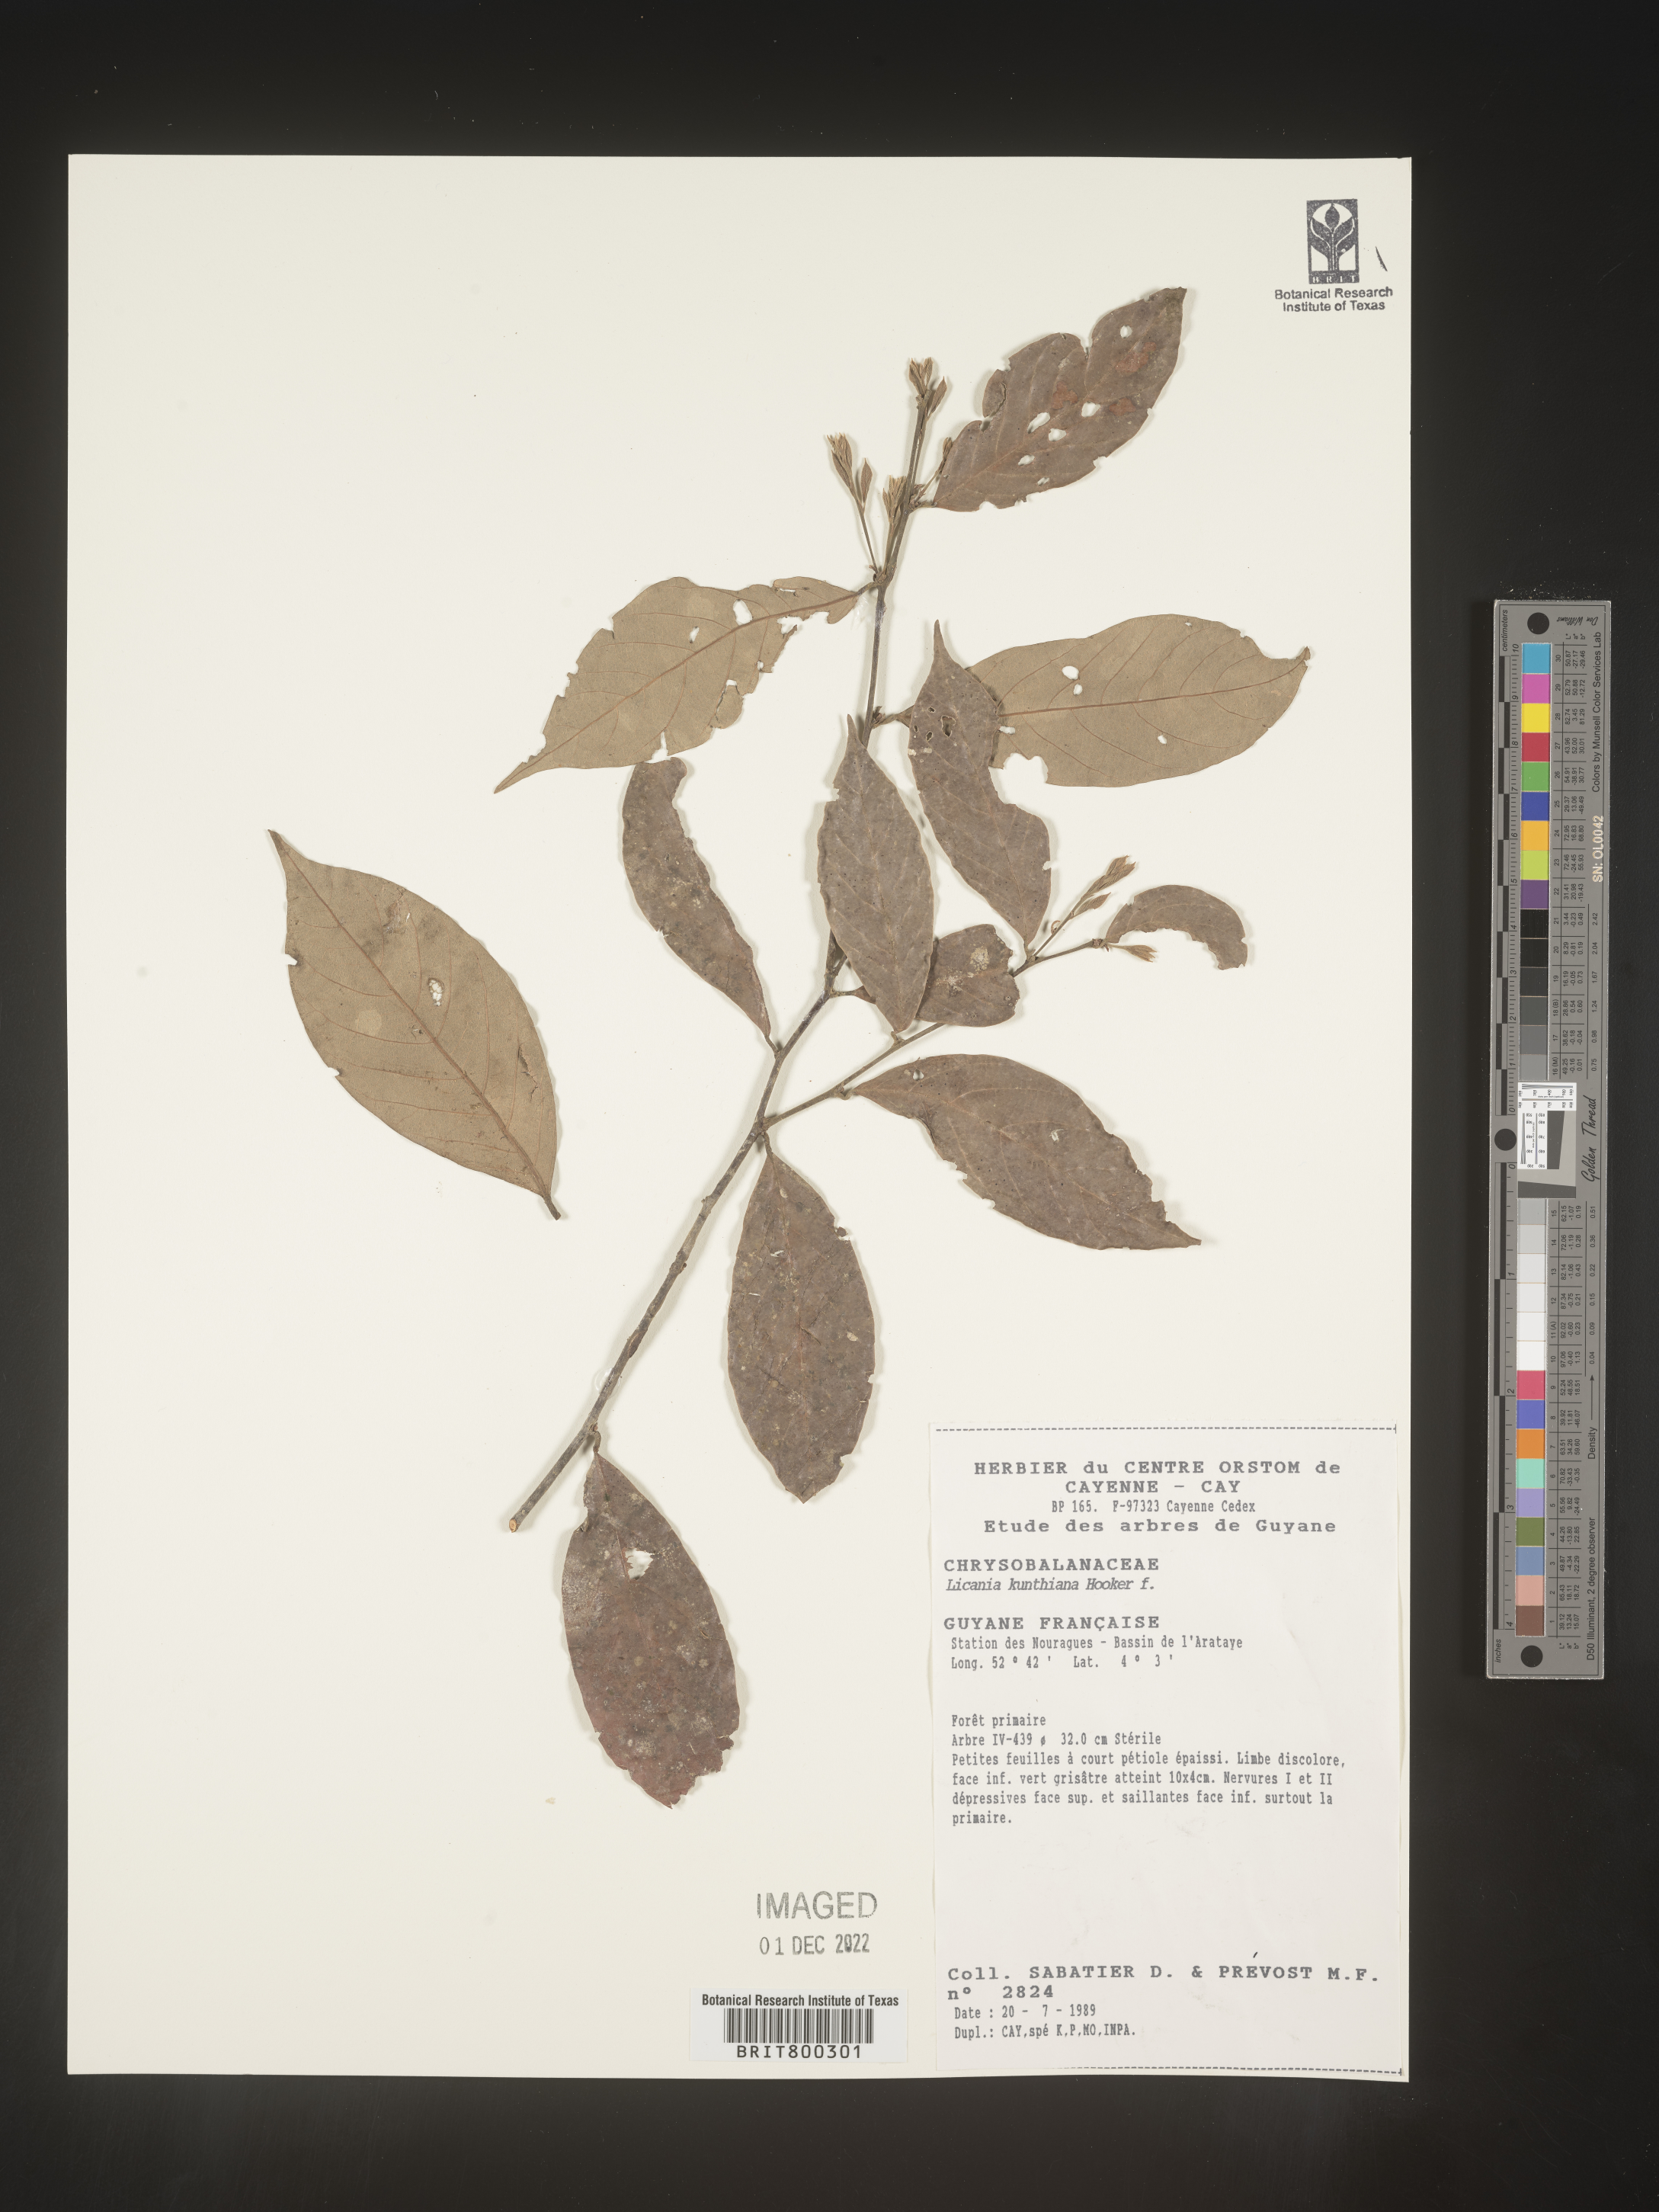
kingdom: Plantae
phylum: Tracheophyta
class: Magnoliopsida
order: Malpighiales
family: Chrysobalanaceae
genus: Licania
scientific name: Licania
